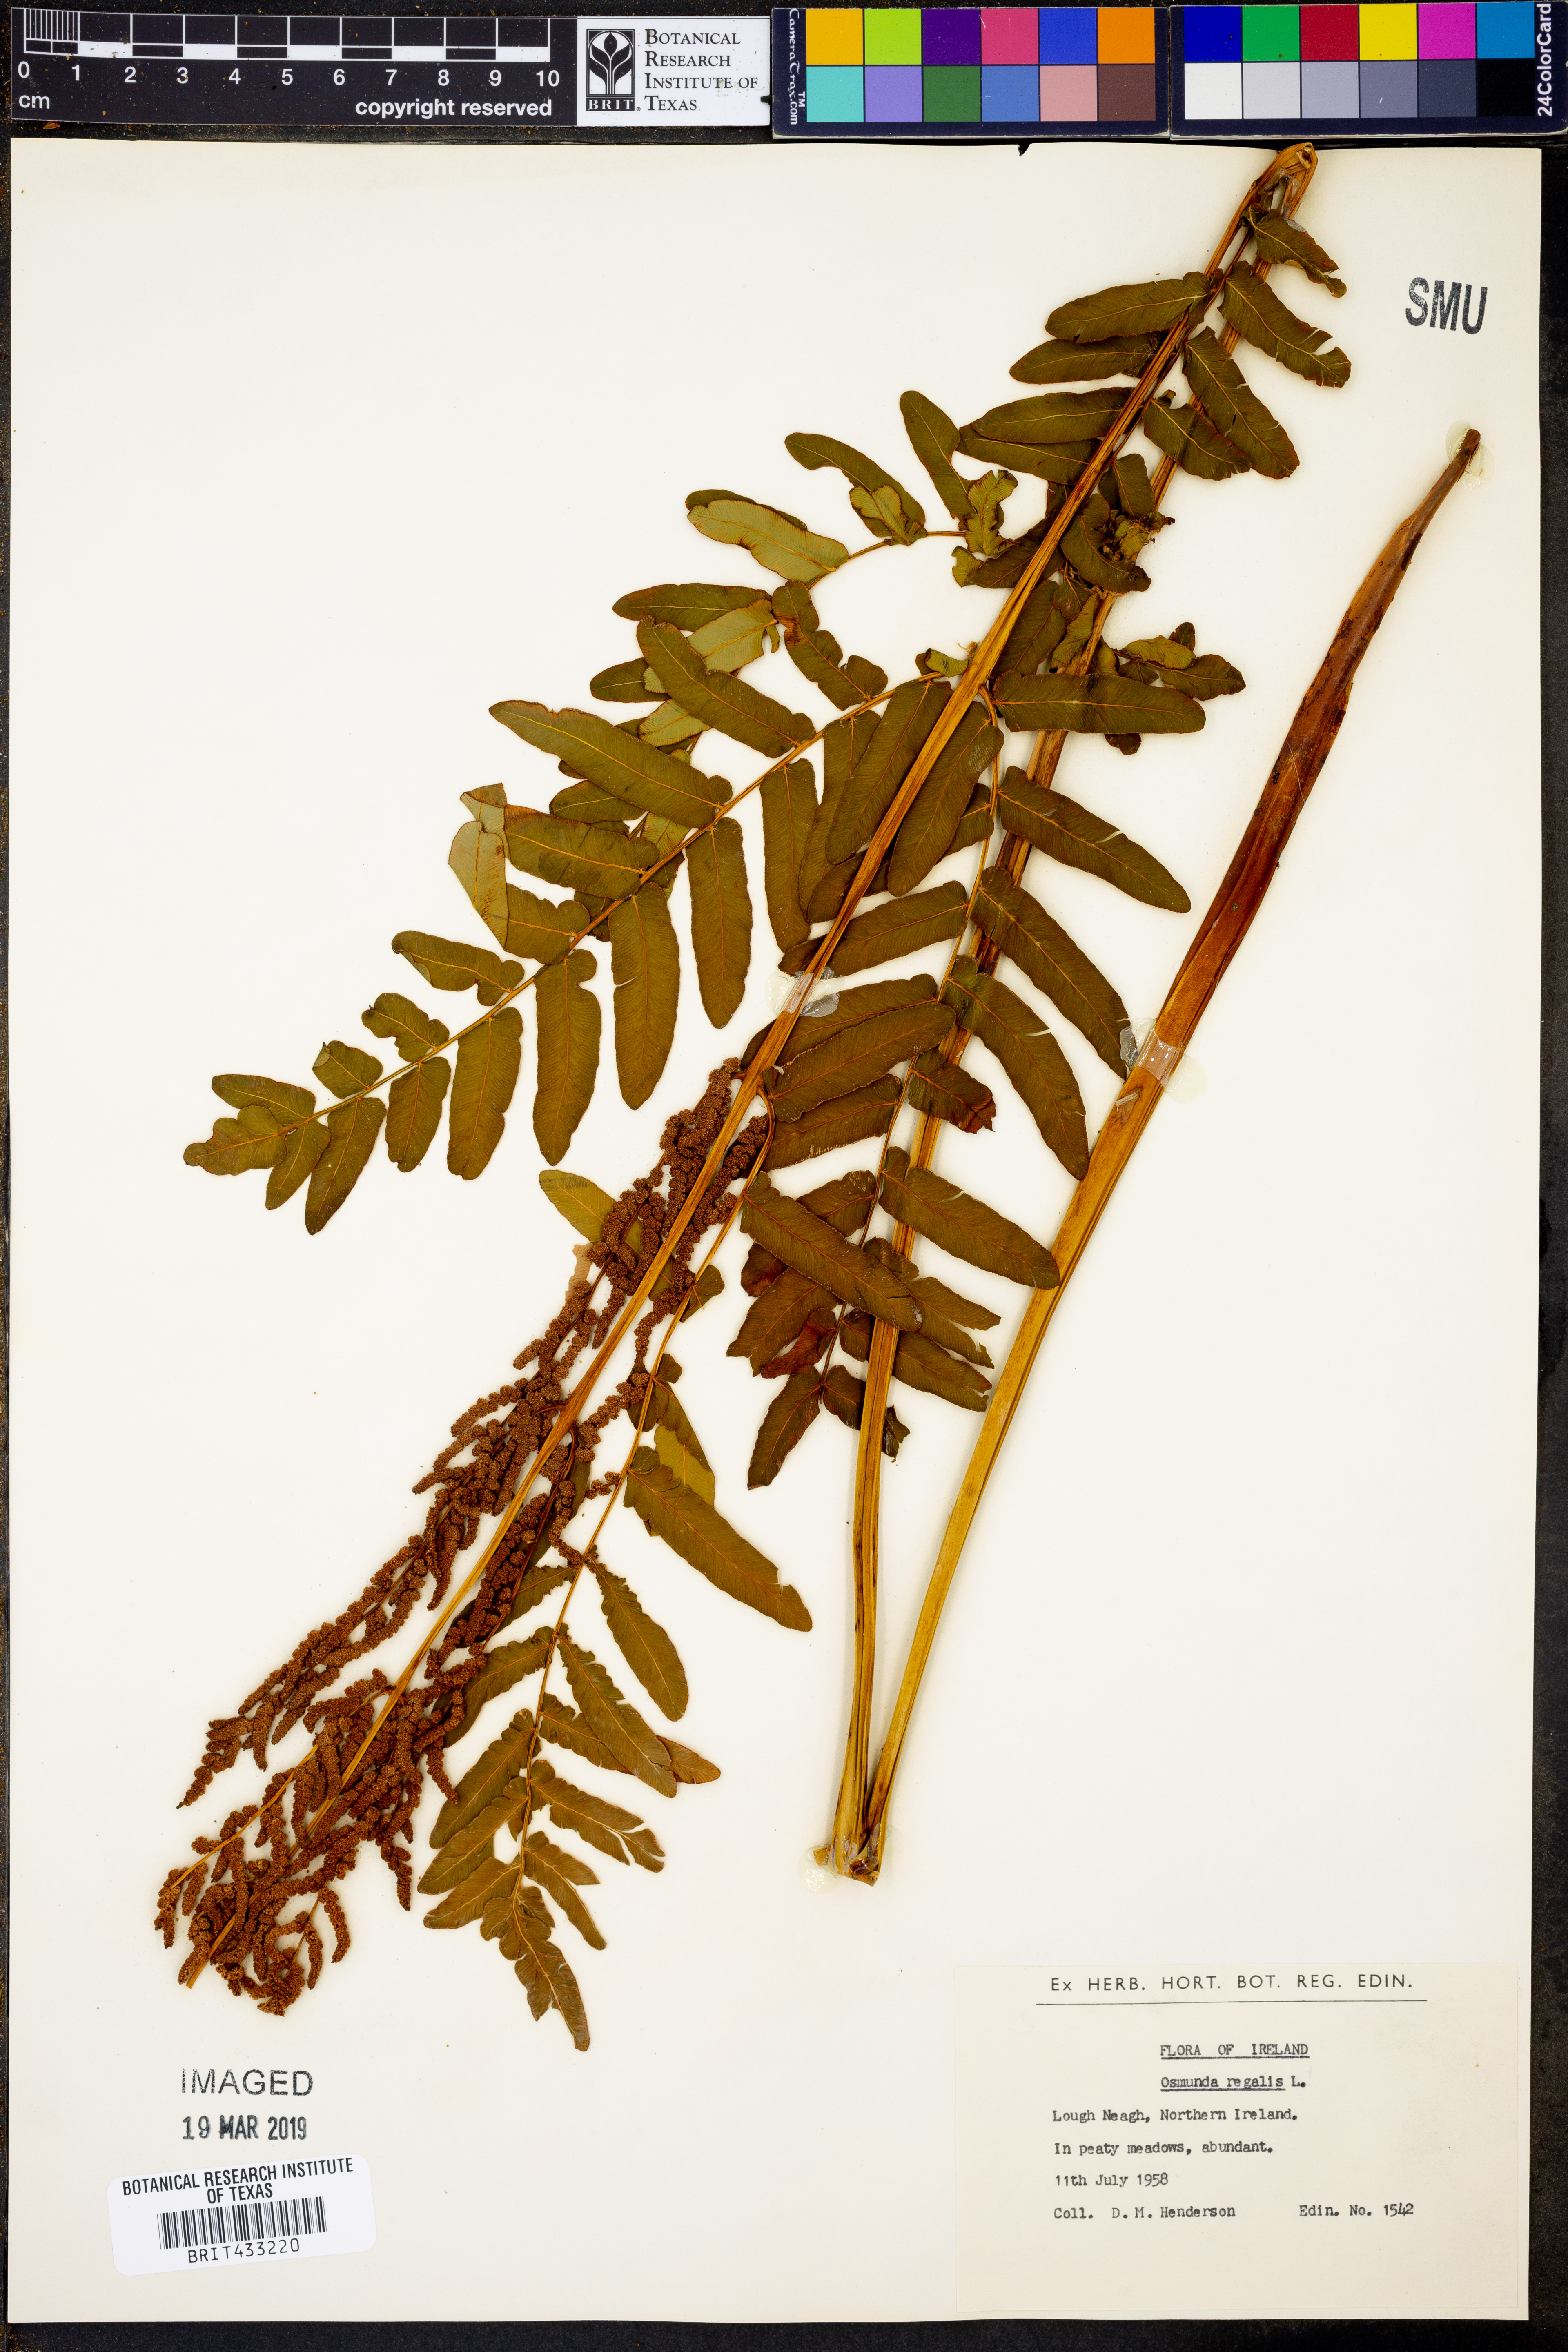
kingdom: Plantae
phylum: Tracheophyta
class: Polypodiopsida
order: Osmundales
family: Osmundaceae
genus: Osmunda
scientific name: Osmunda regalis
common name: Royal fern
